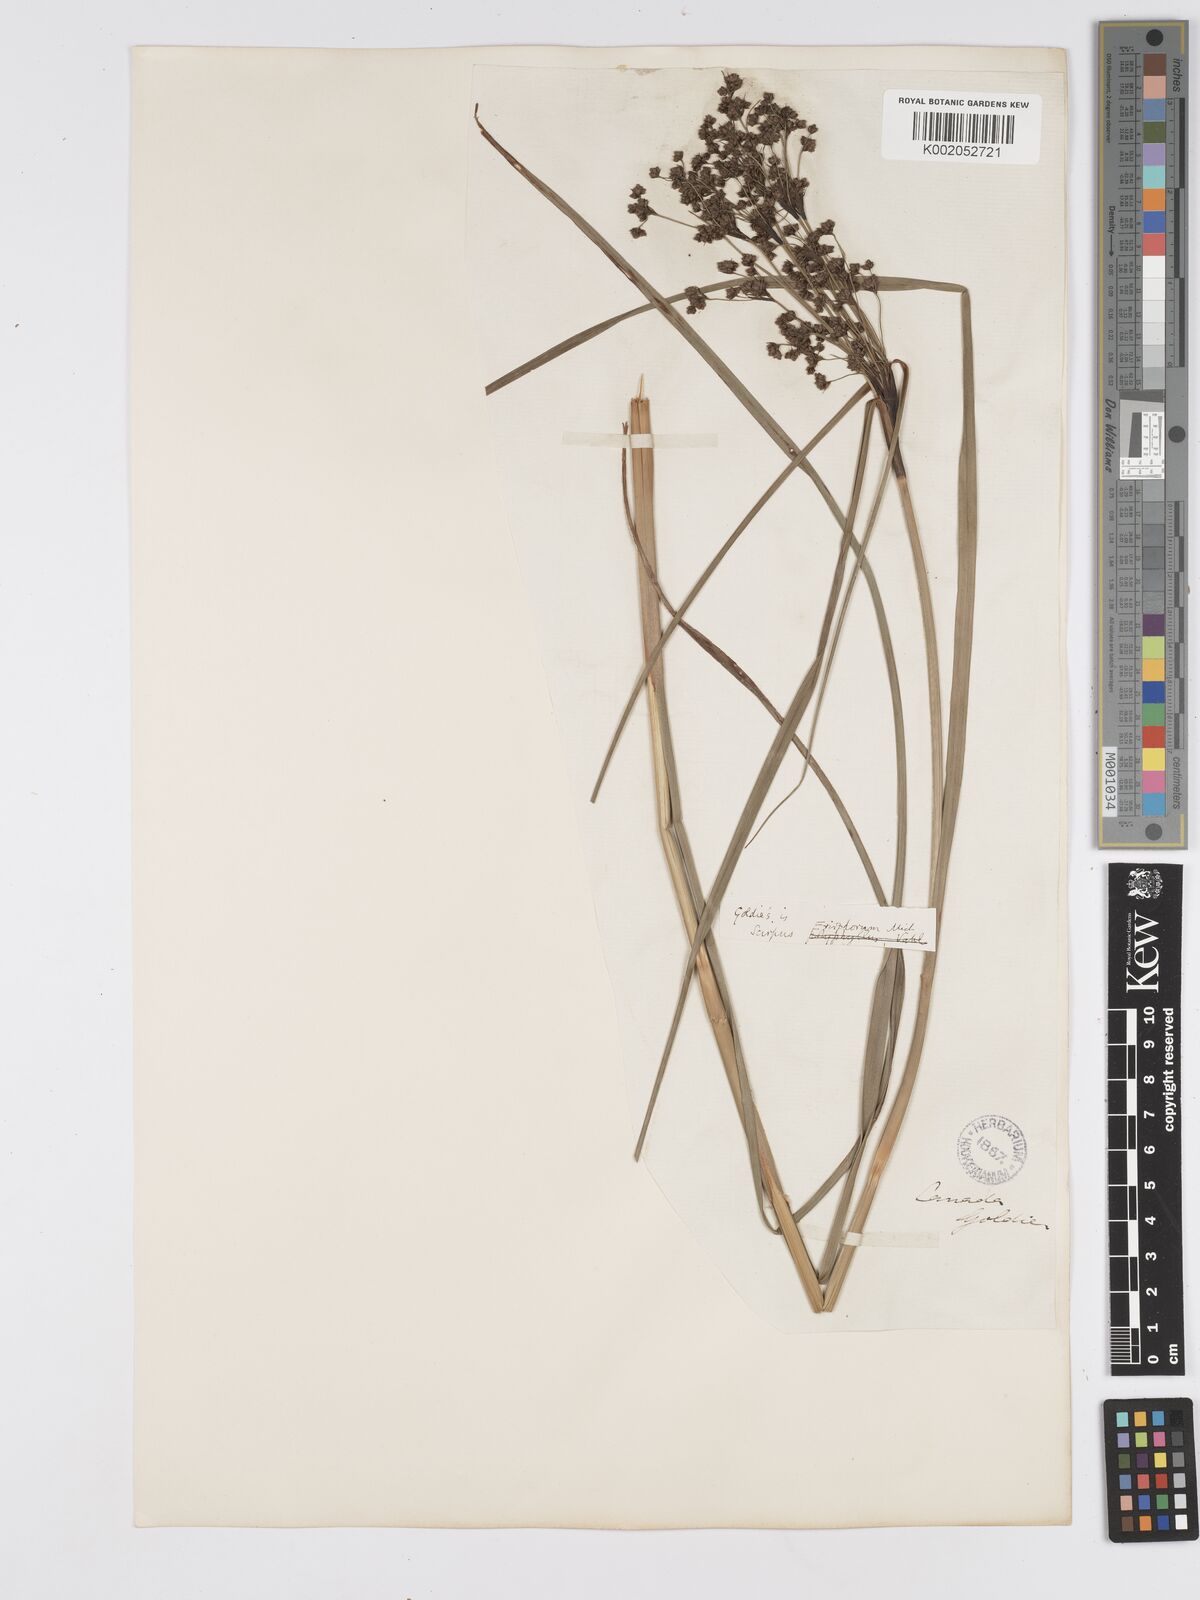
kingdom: Plantae
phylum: Tracheophyta
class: Liliopsida
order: Poales
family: Cyperaceae
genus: Scirpus
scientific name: Scirpus cyperinus
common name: Black-sheathed bulrush
